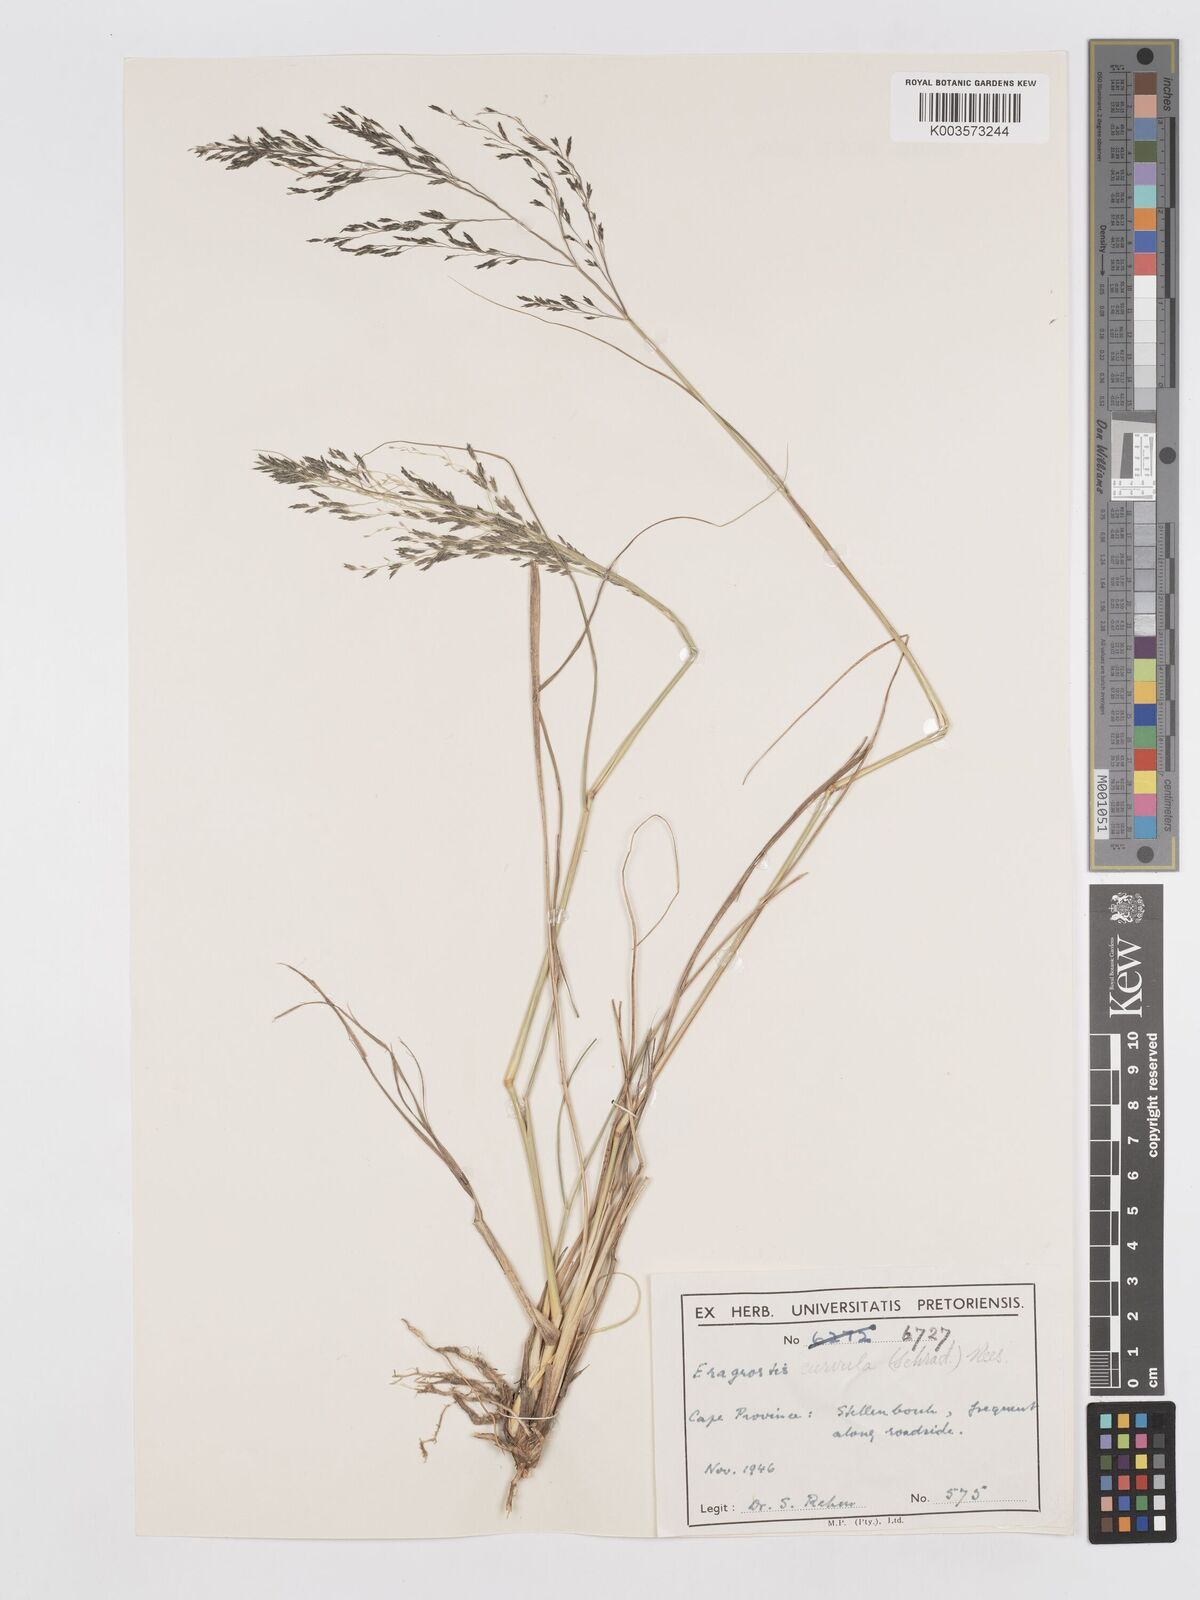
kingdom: Plantae
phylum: Tracheophyta
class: Liliopsida
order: Poales
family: Poaceae
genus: Eragrostis
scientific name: Eragrostis curvula
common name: African love-grass
